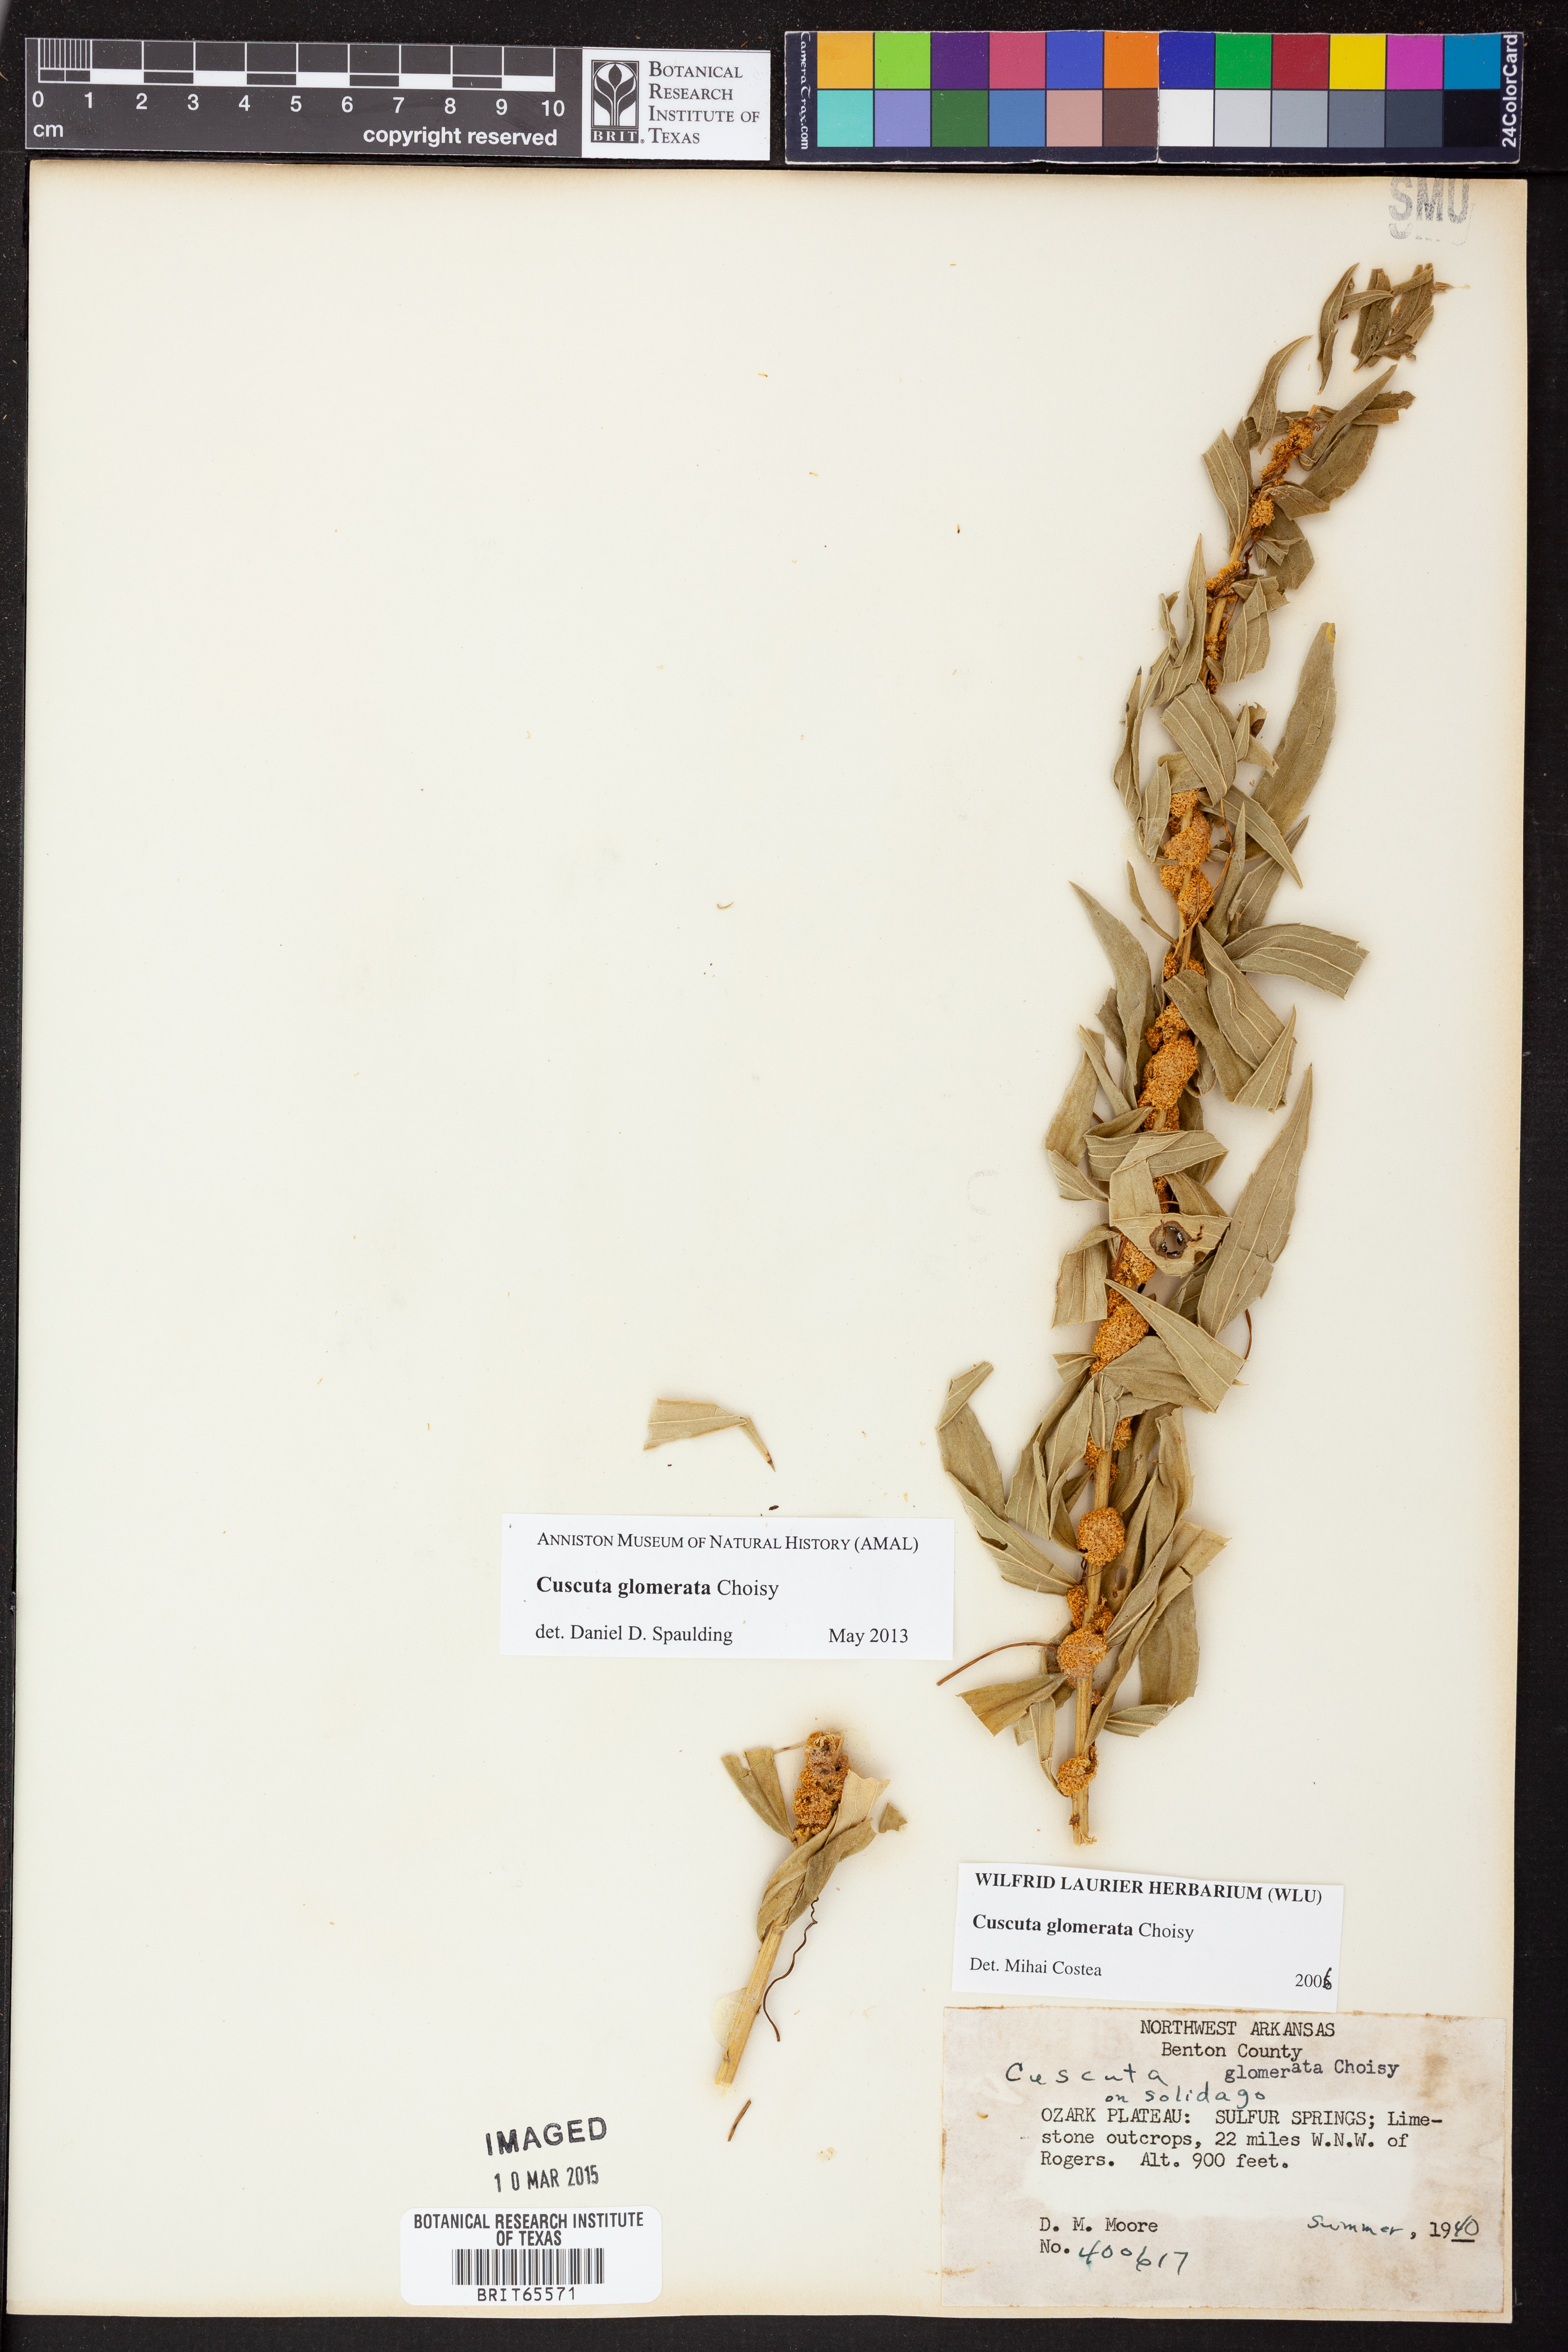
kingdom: Plantae
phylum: Tracheophyta
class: Magnoliopsida
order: Solanales
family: Convolvulaceae
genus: Cuscuta
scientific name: Cuscuta glomerata
